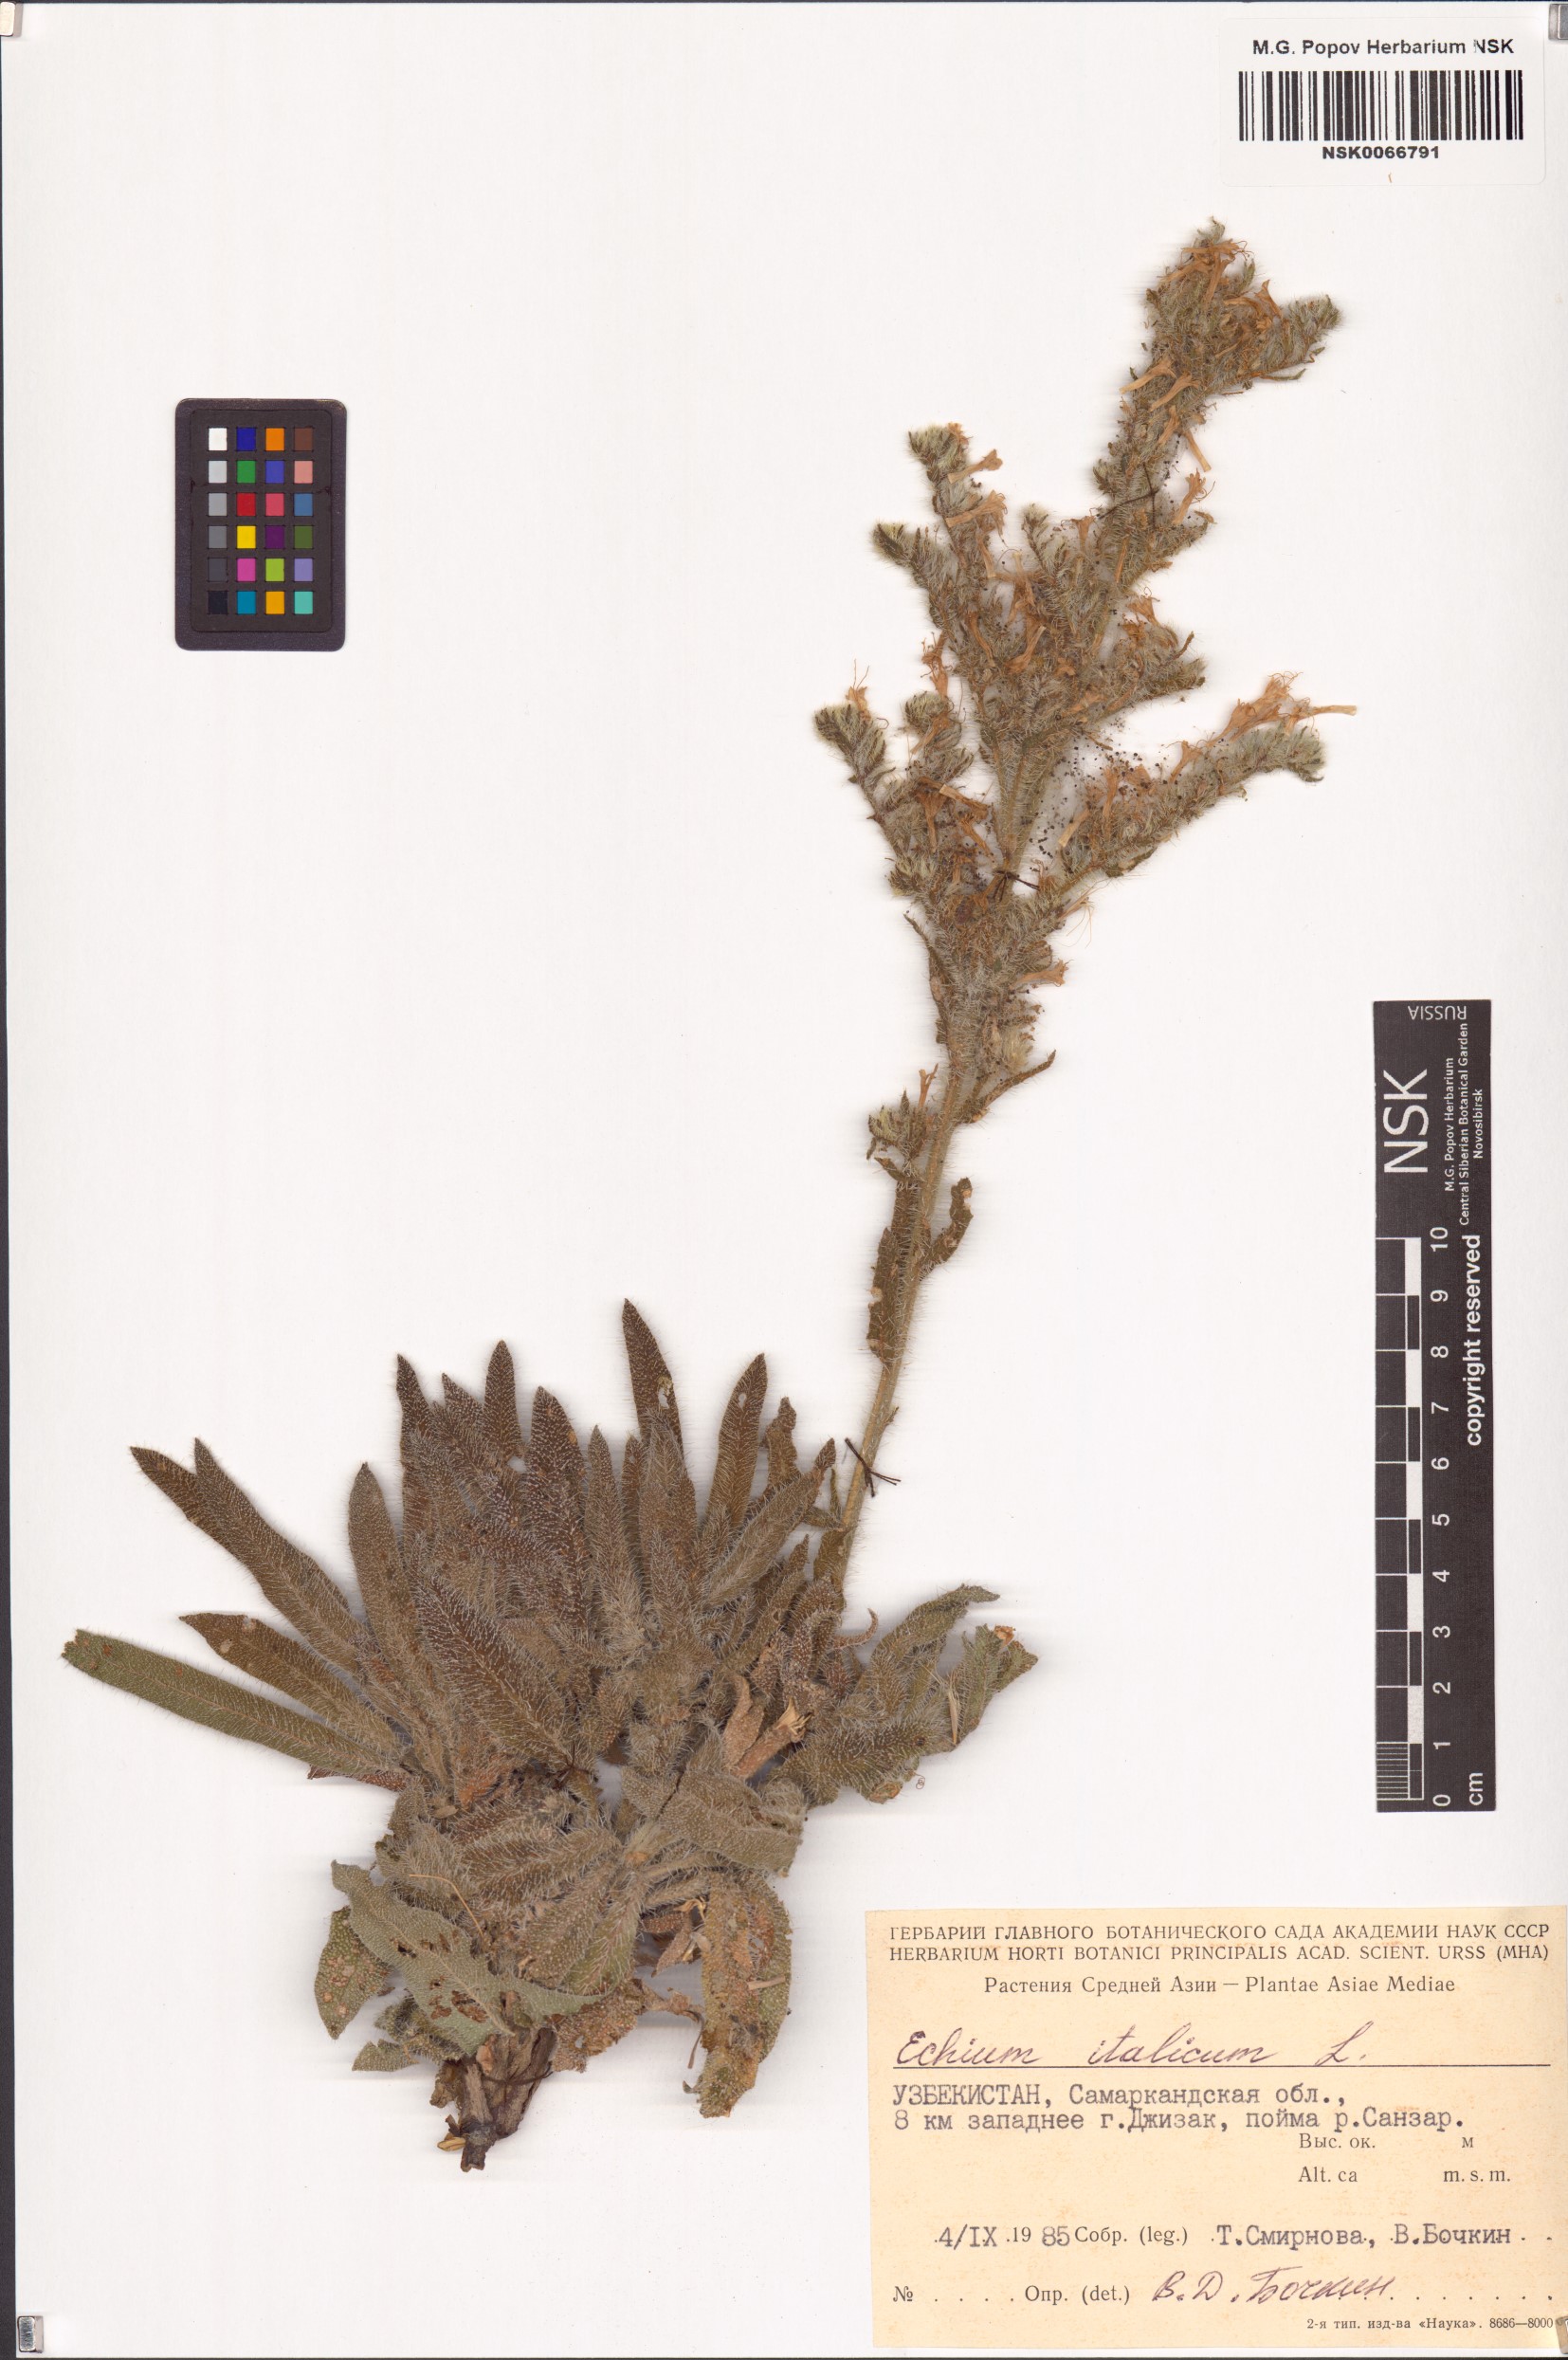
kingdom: Plantae
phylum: Tracheophyta
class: Magnoliopsida
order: Boraginales
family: Boraginaceae
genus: Echium
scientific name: Echium italicum
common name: Italian viper's bugloss
